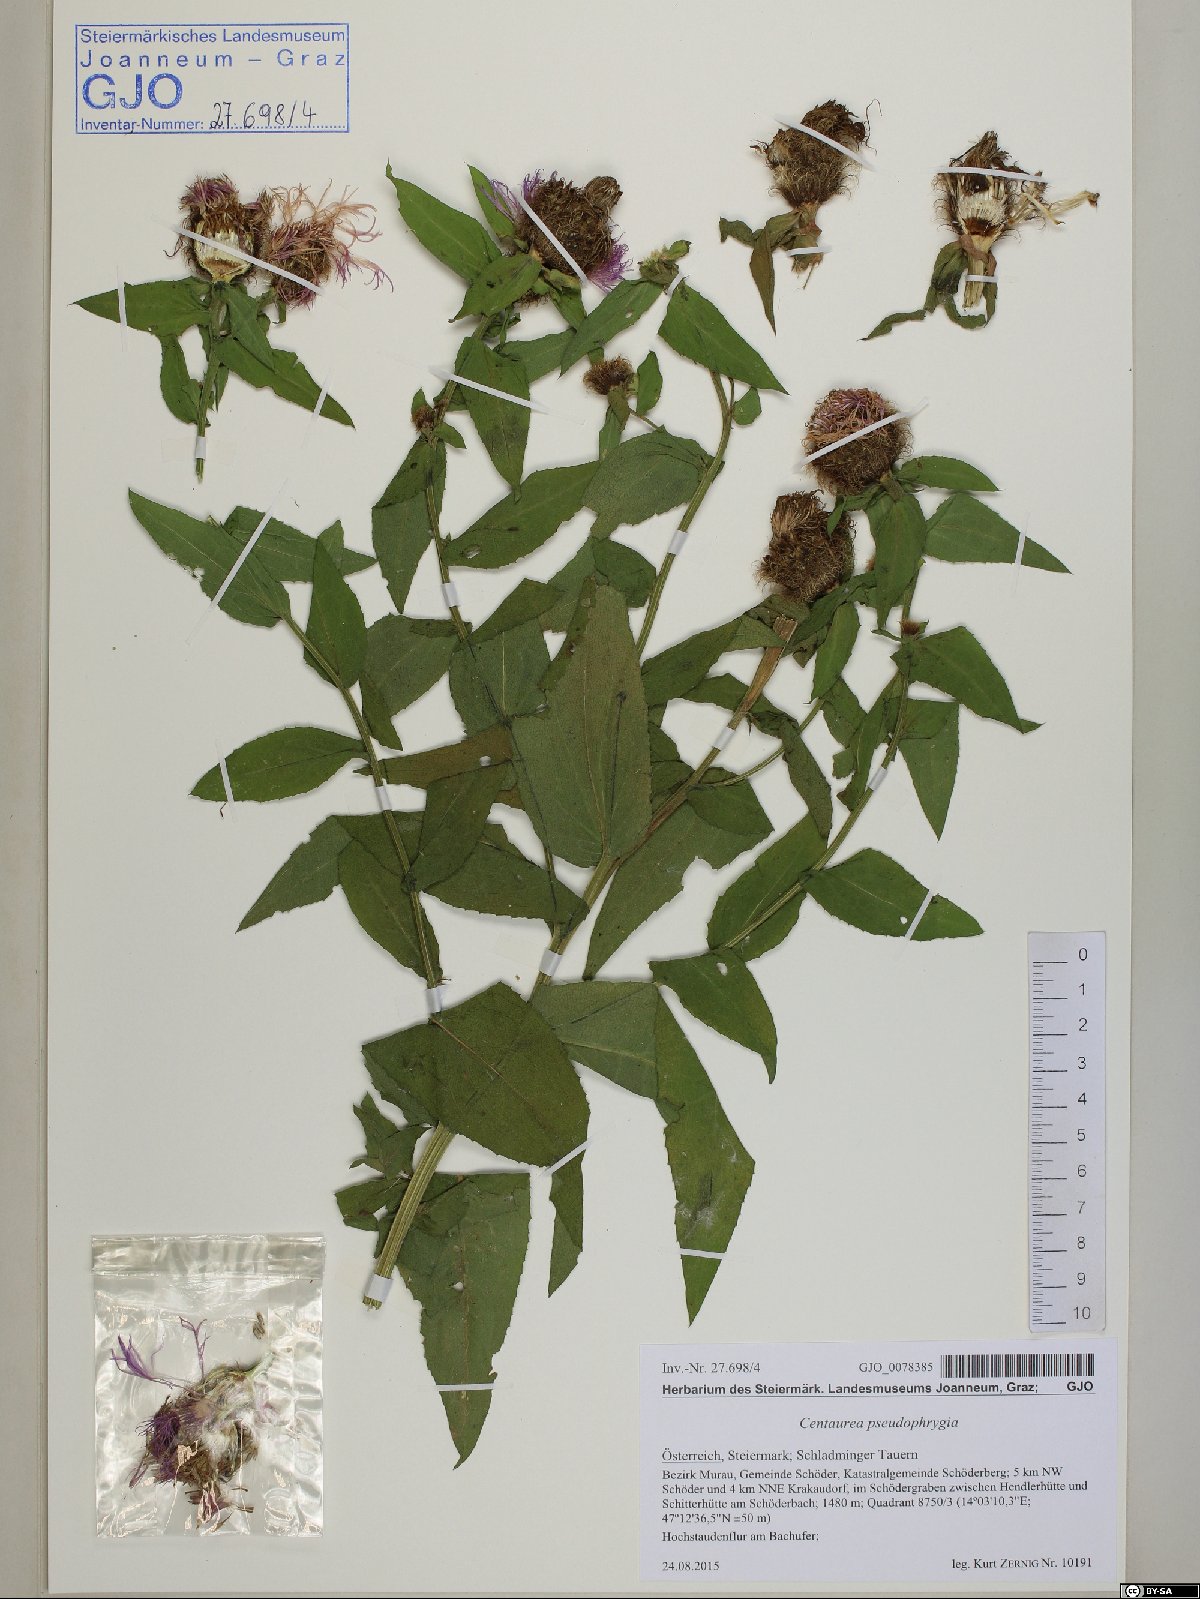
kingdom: Plantae
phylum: Tracheophyta
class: Magnoliopsida
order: Asterales
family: Asteraceae
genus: Centaurea
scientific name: Centaurea pseudophrygia
